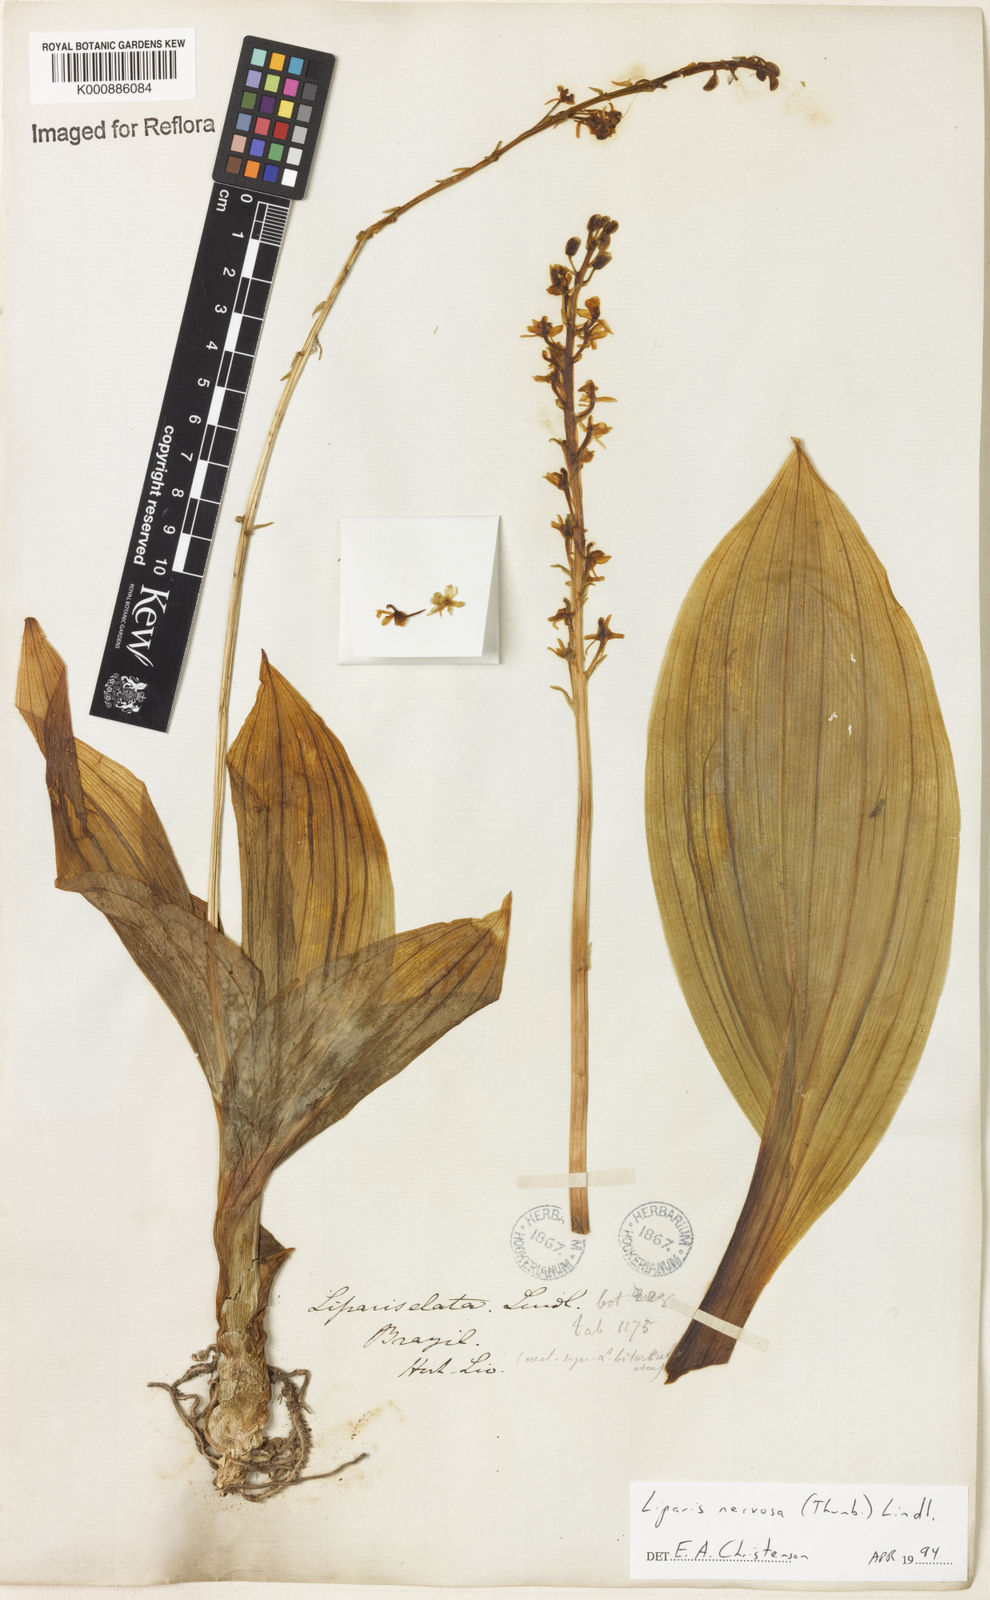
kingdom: Plantae
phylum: Tracheophyta
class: Liliopsida
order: Asparagales
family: Orchidaceae
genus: Liparis
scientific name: Liparis nervosa
